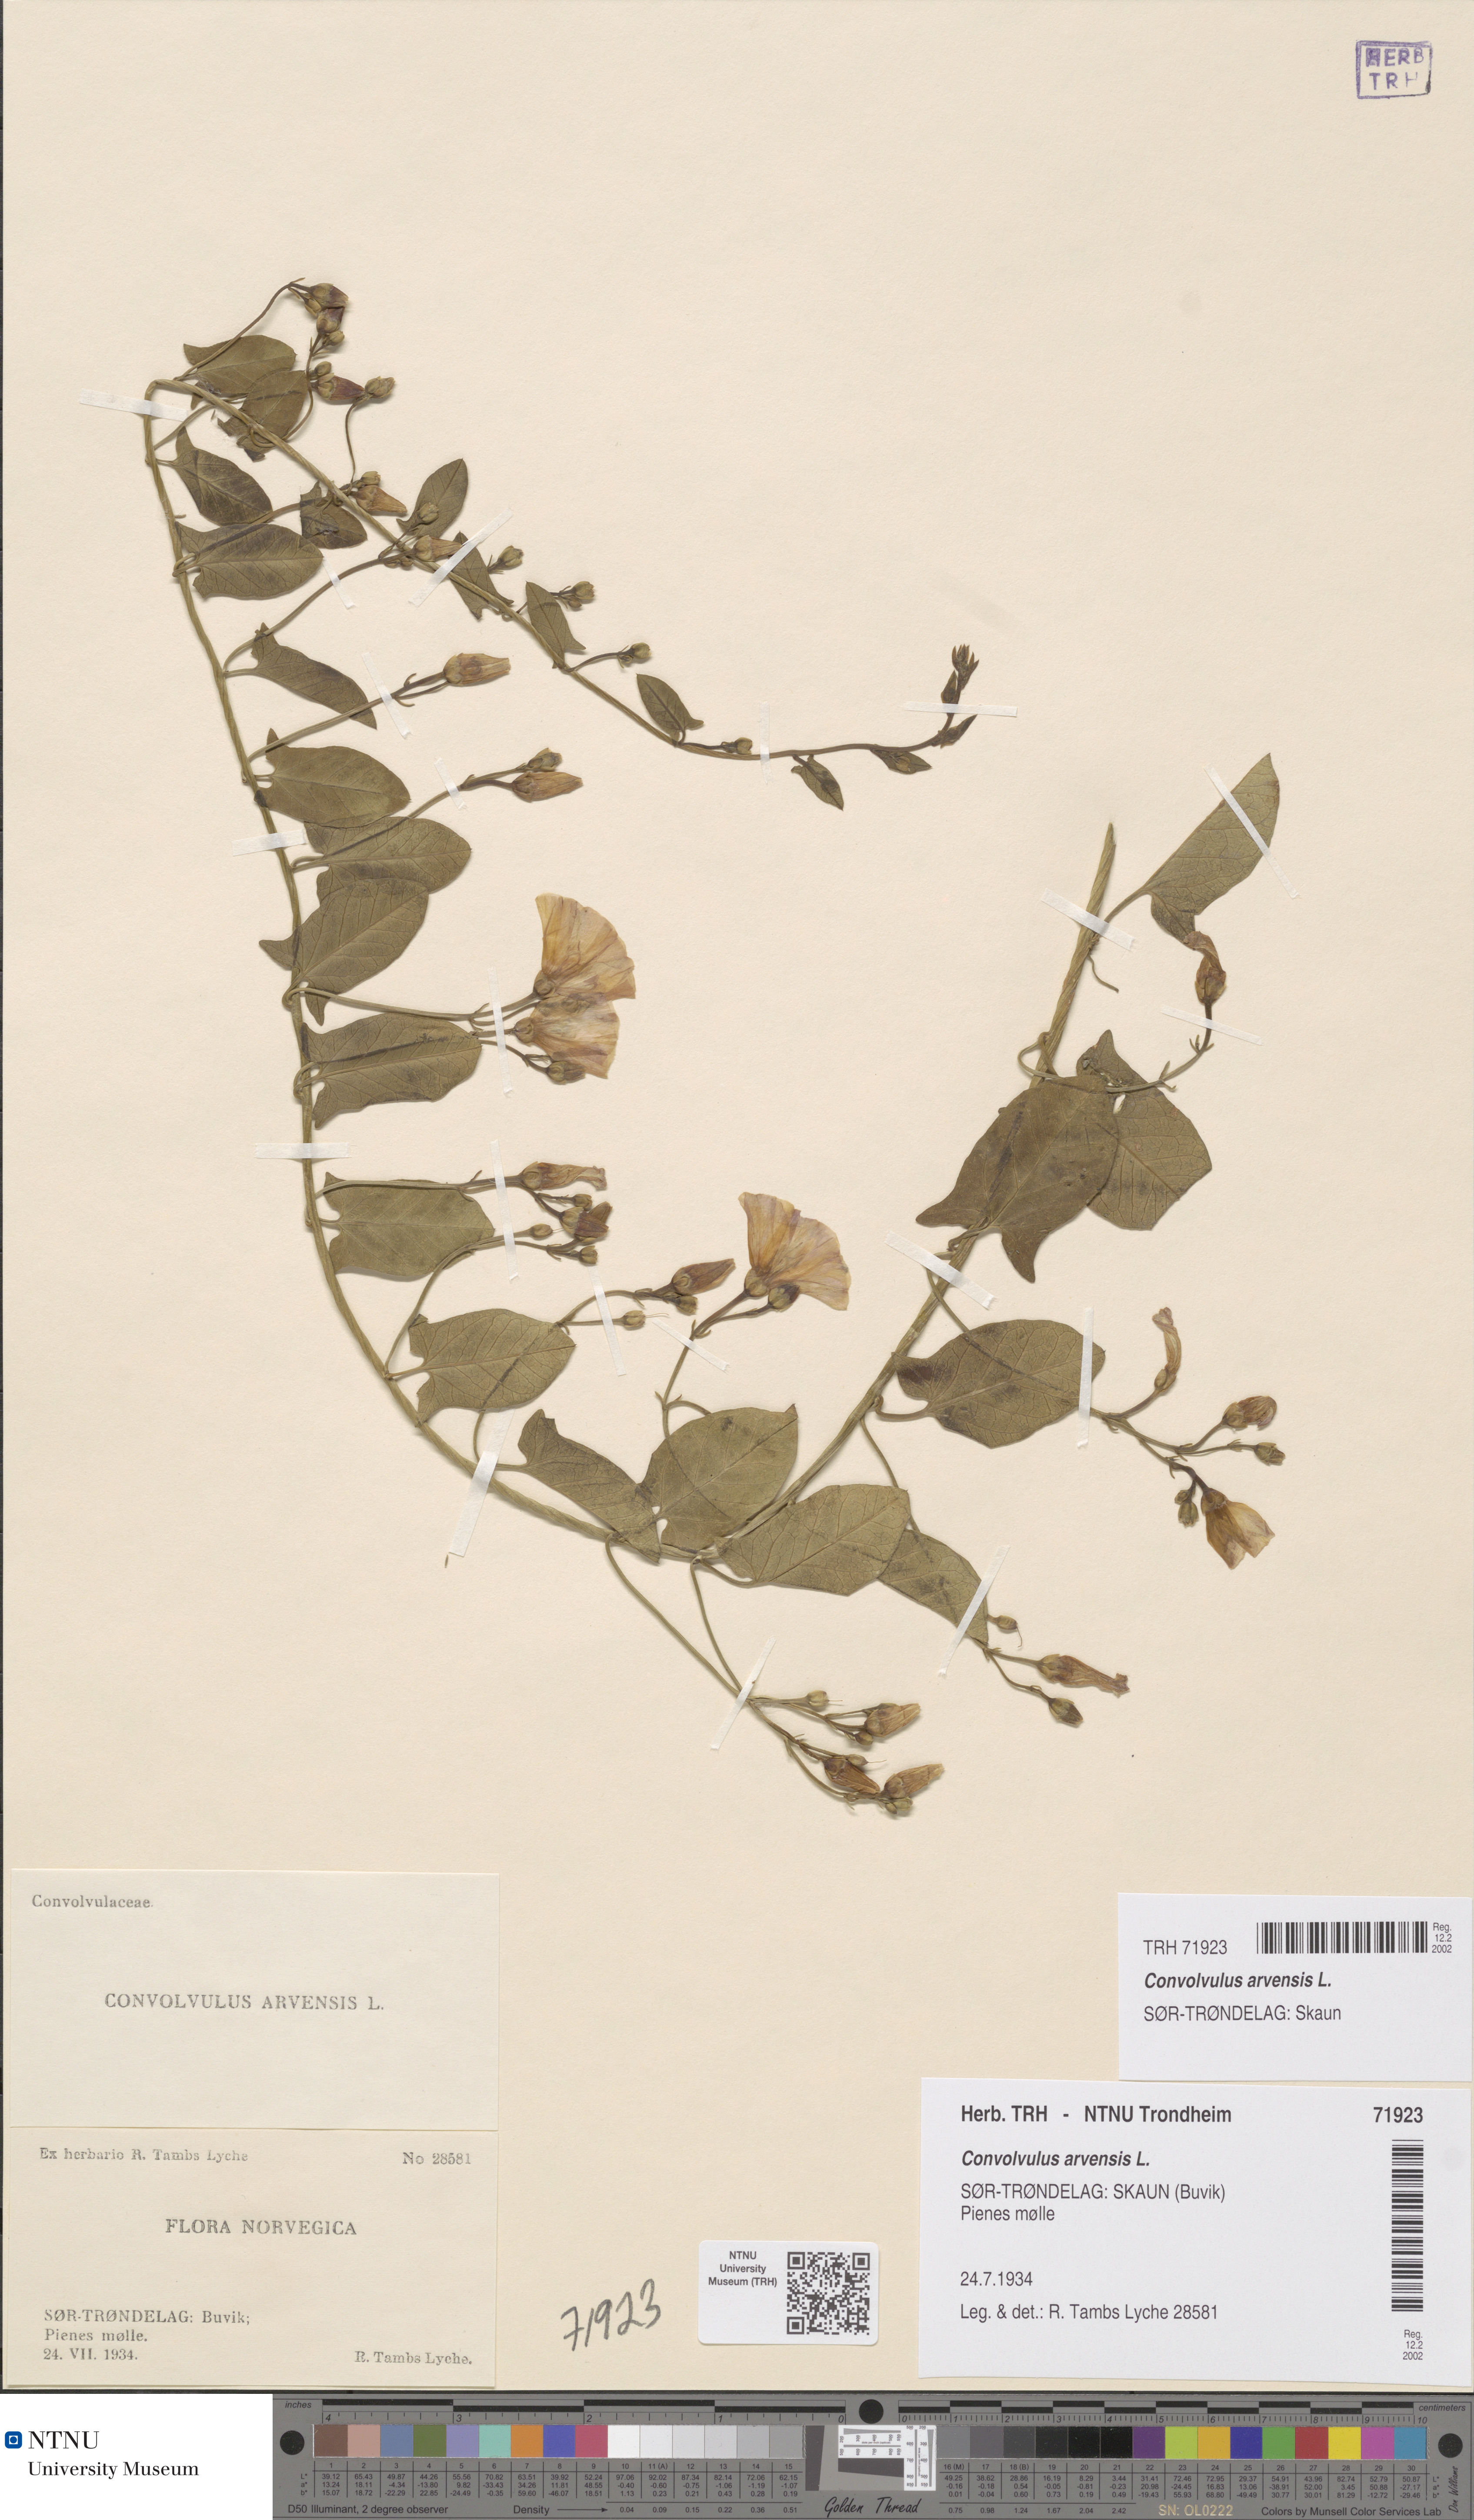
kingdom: Plantae
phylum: Tracheophyta
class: Magnoliopsida
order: Solanales
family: Convolvulaceae
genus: Convolvulus
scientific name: Convolvulus arvensis
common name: Field bindweed
